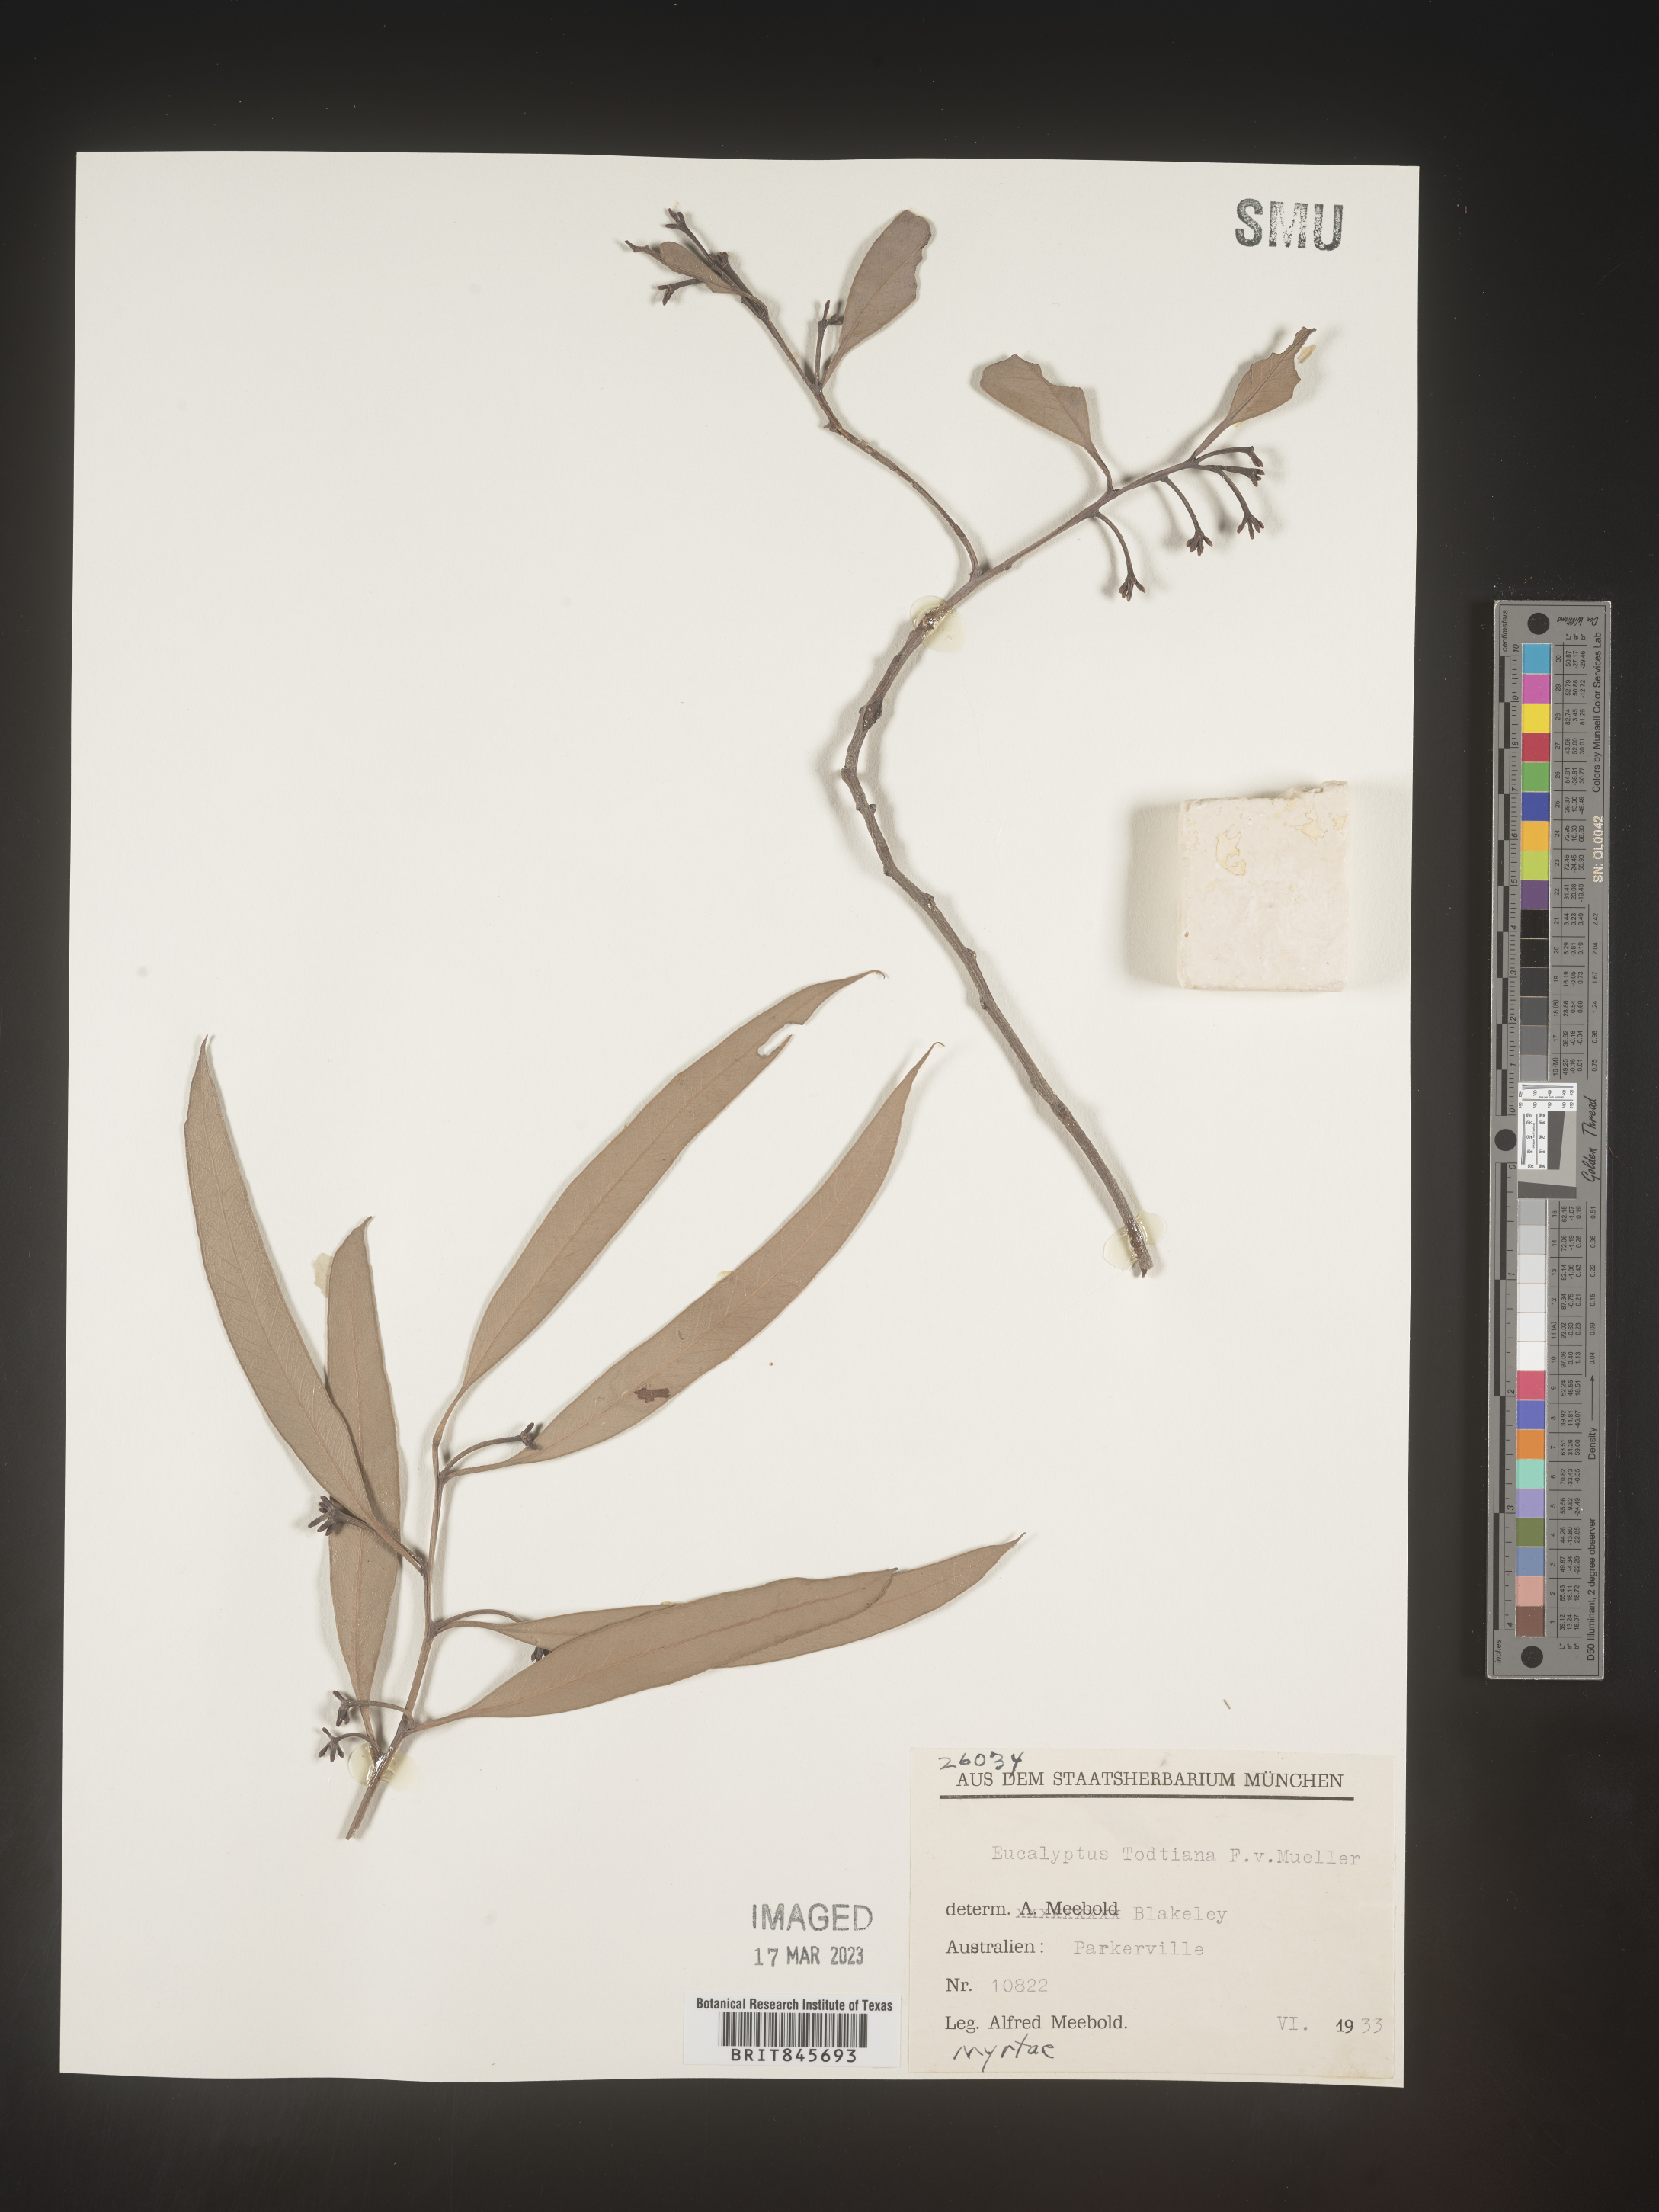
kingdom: Plantae
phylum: Tracheophyta
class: Magnoliopsida
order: Myrtales
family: Myrtaceae
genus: Eucalyptus
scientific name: Eucalyptus
